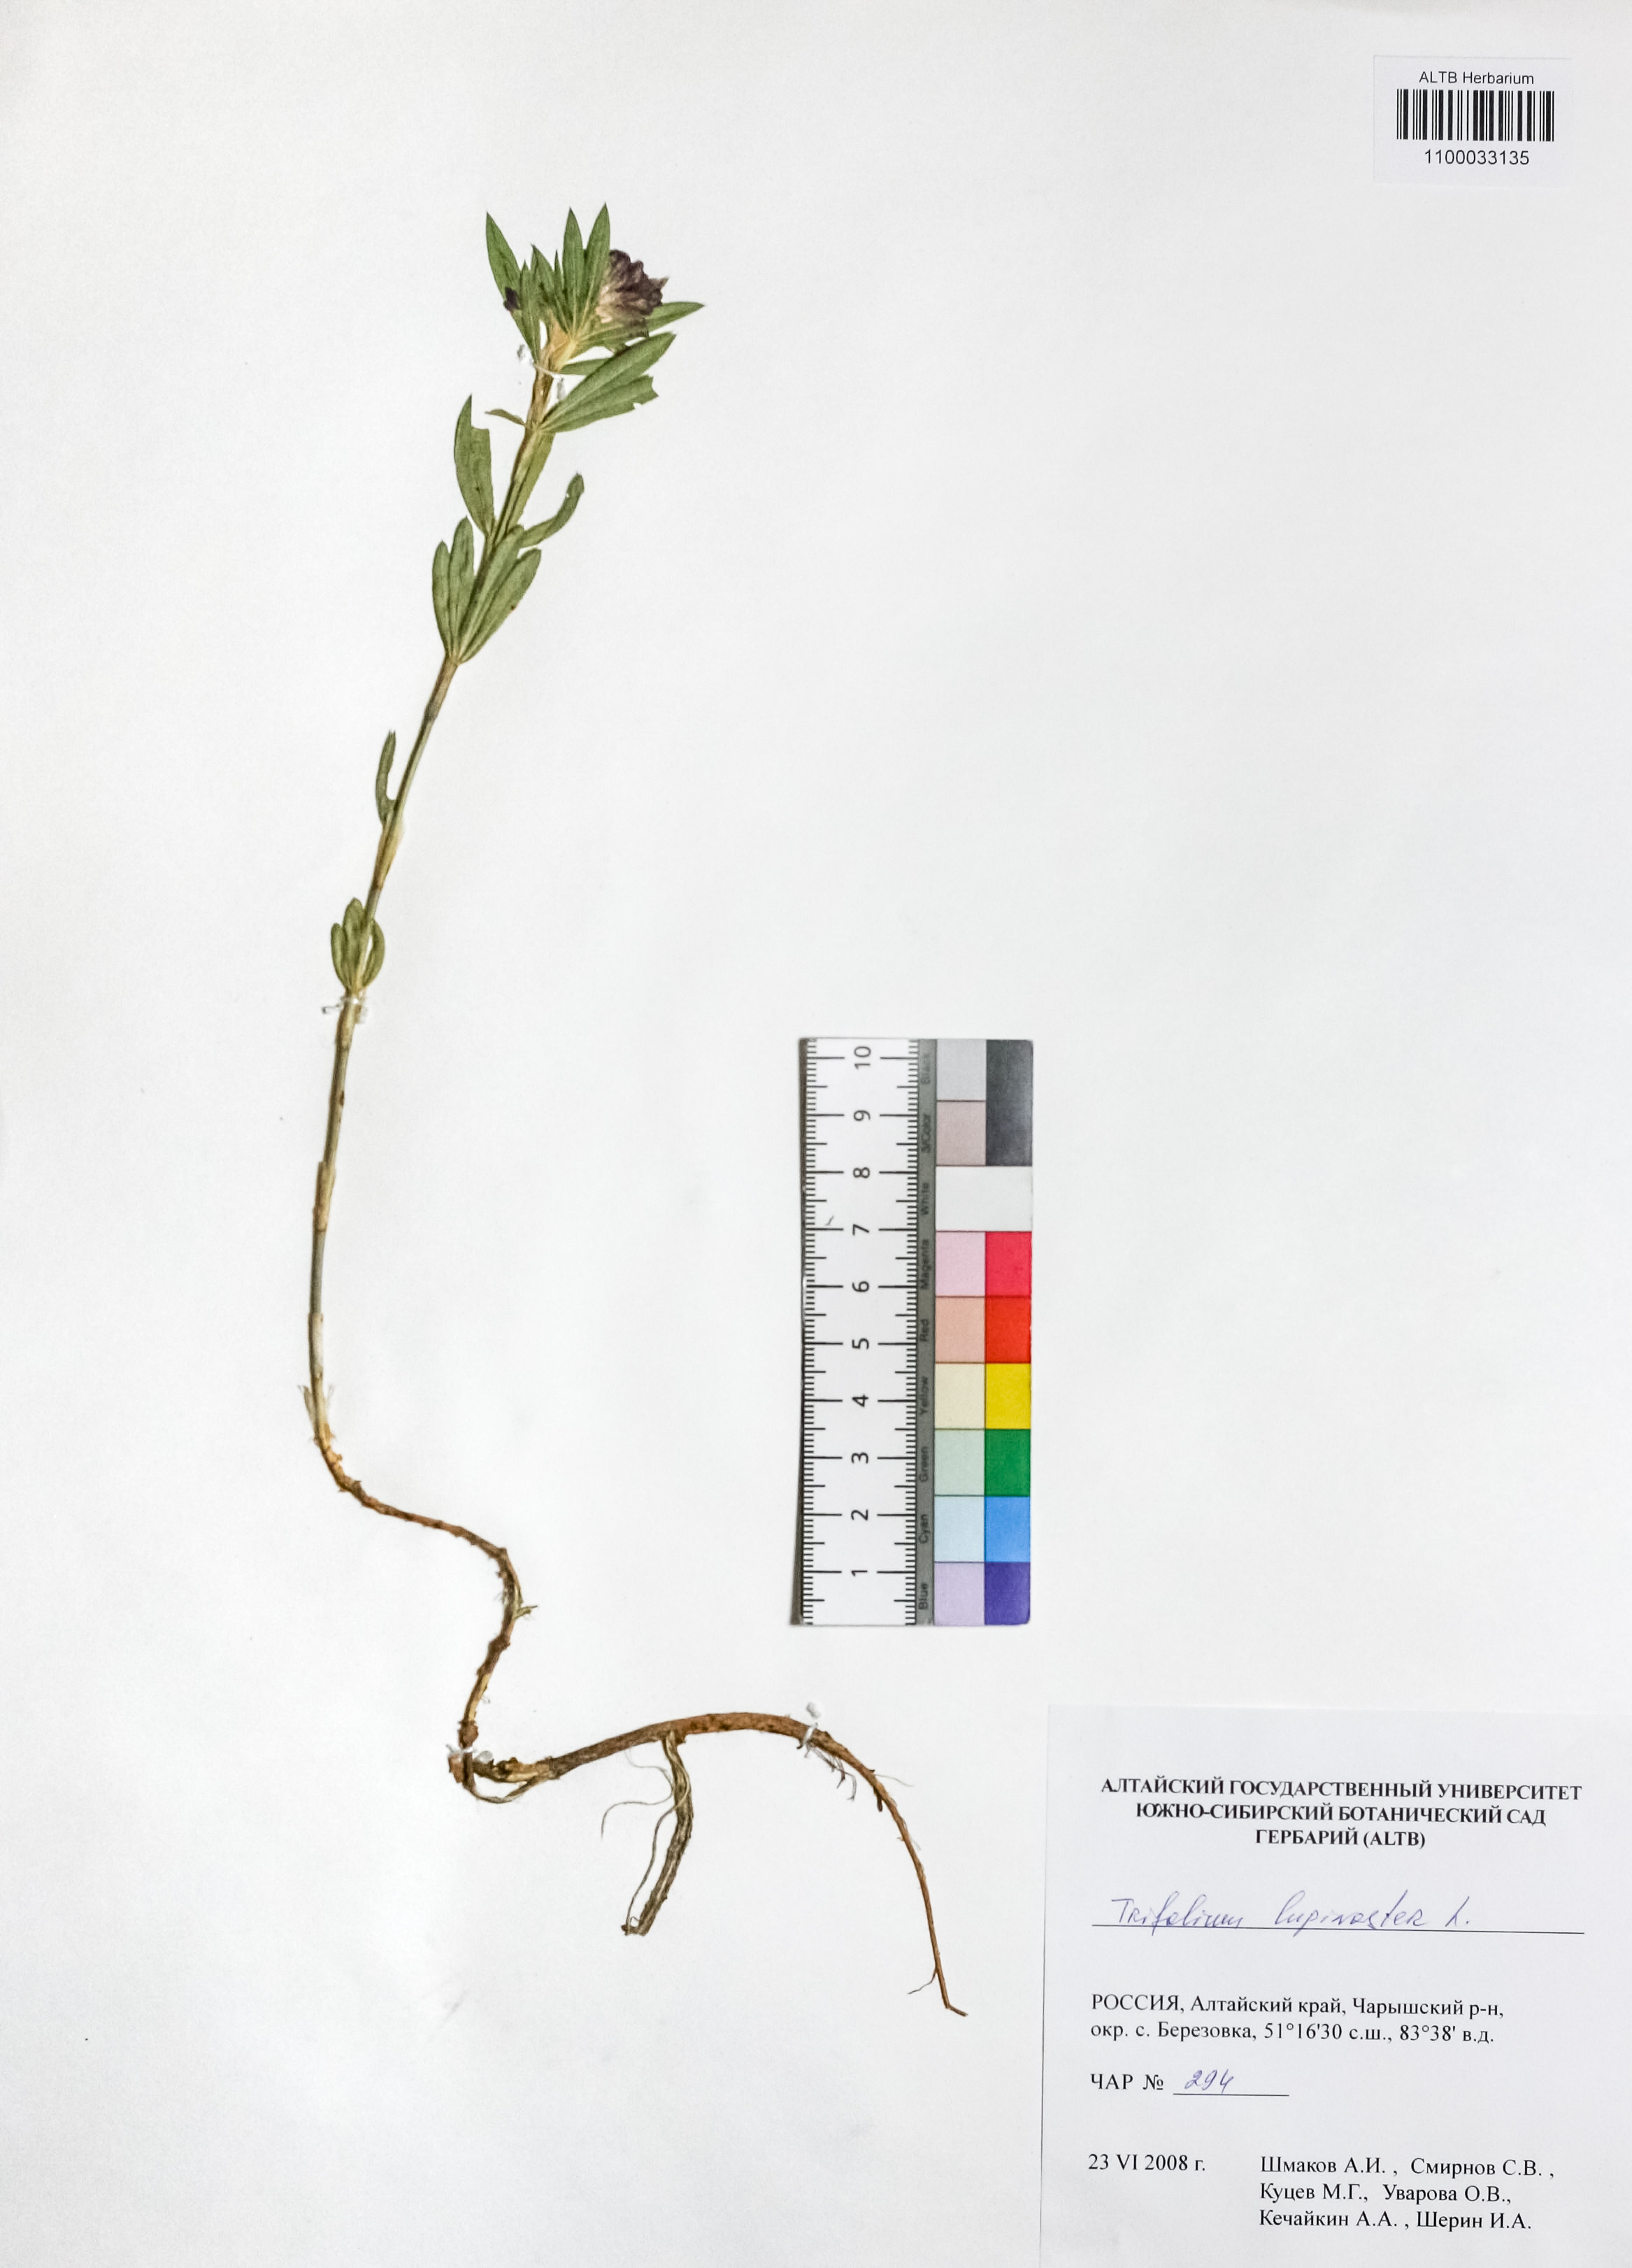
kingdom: Plantae
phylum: Tracheophyta
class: Magnoliopsida
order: Fabales
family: Fabaceae
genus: Trifolium
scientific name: Trifolium lupinaster
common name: Lupine clover
